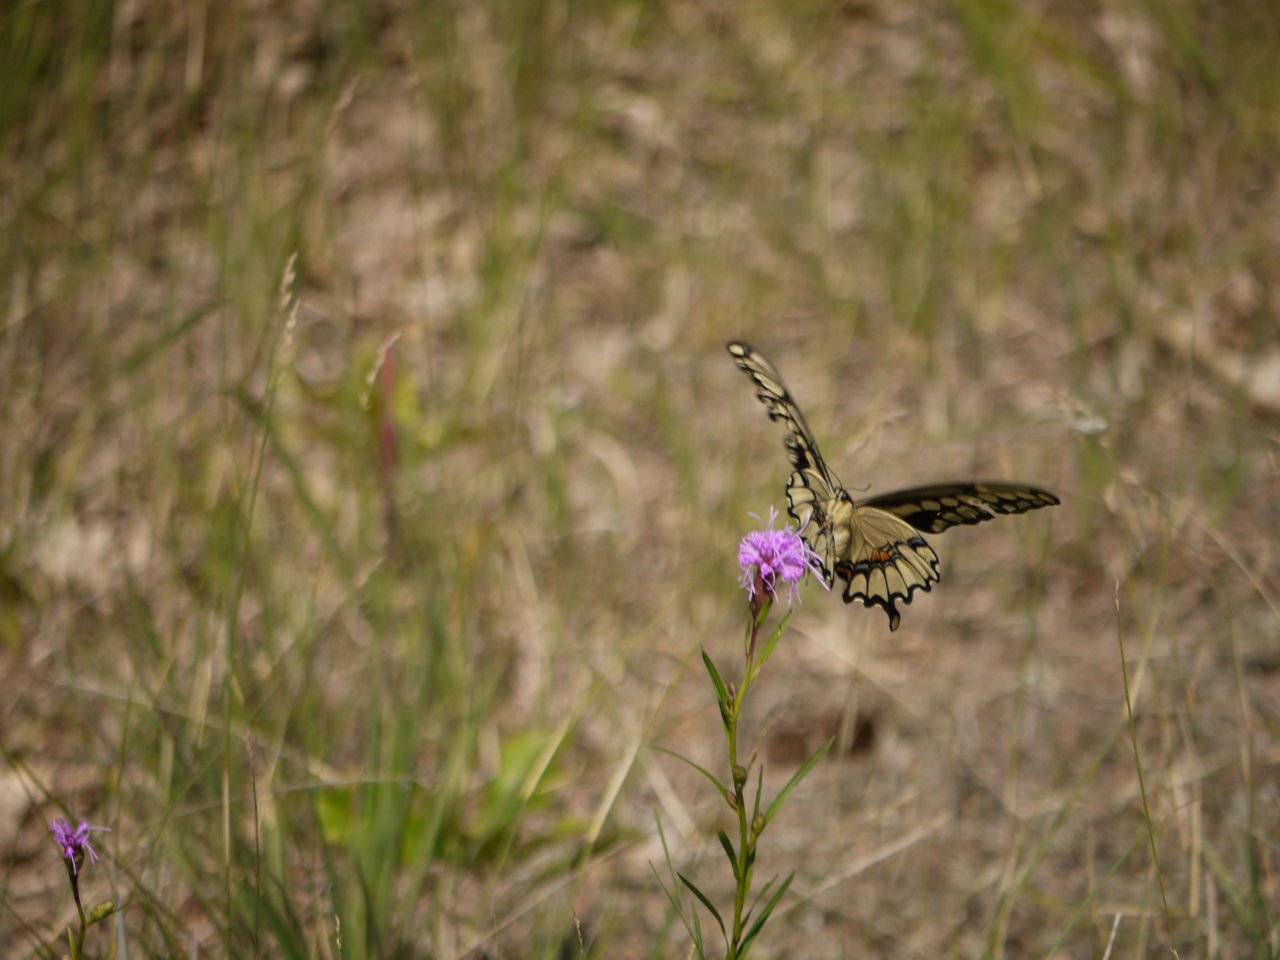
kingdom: Animalia
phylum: Arthropoda
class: Insecta
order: Lepidoptera
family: Papilionidae
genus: Papilio
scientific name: Papilio cresphontes
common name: Eastern Giant Swallowtail
